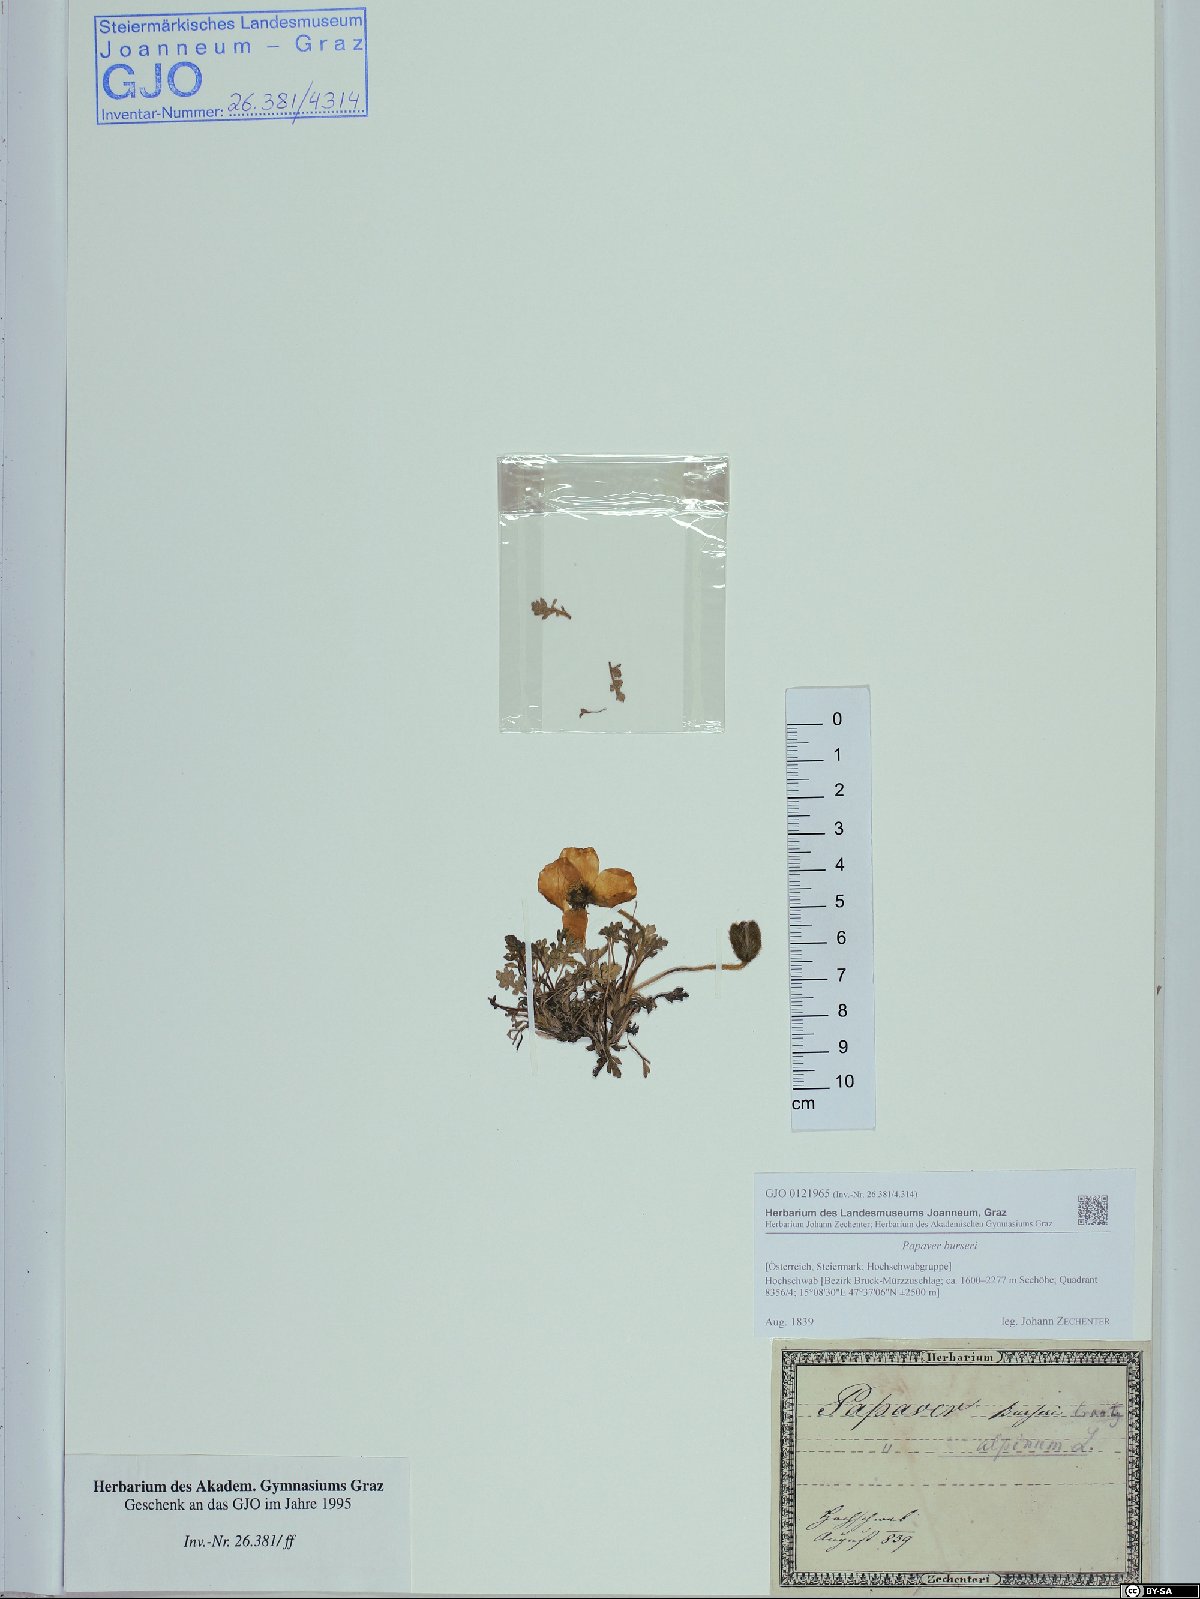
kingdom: Plantae
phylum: Tracheophyta
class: Magnoliopsida
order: Ranunculales
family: Papaveraceae
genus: Papaver
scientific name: Papaver alpinum
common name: Austrian poppy
